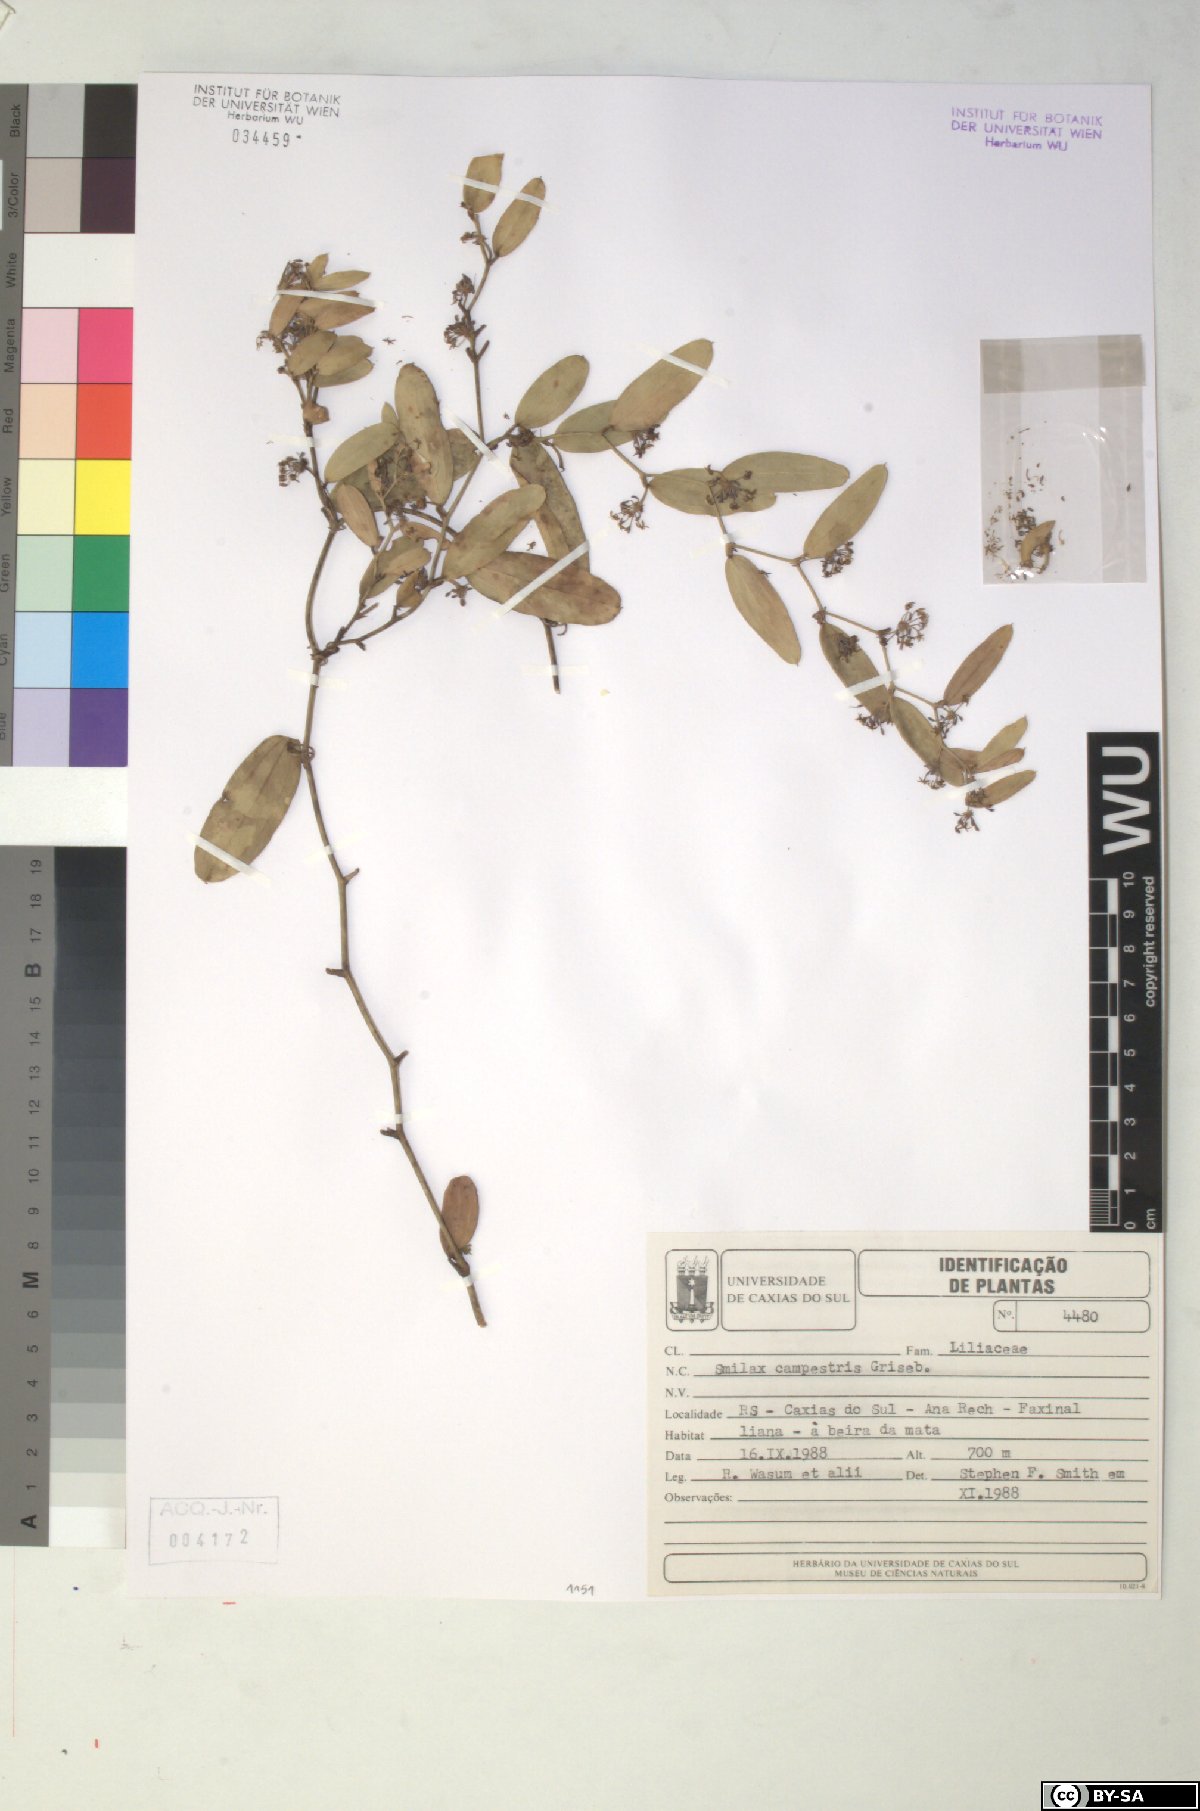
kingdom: Plantae
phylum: Tracheophyta
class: Liliopsida
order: Liliales
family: Smilacaceae
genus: Smilax
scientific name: Smilax campestris
